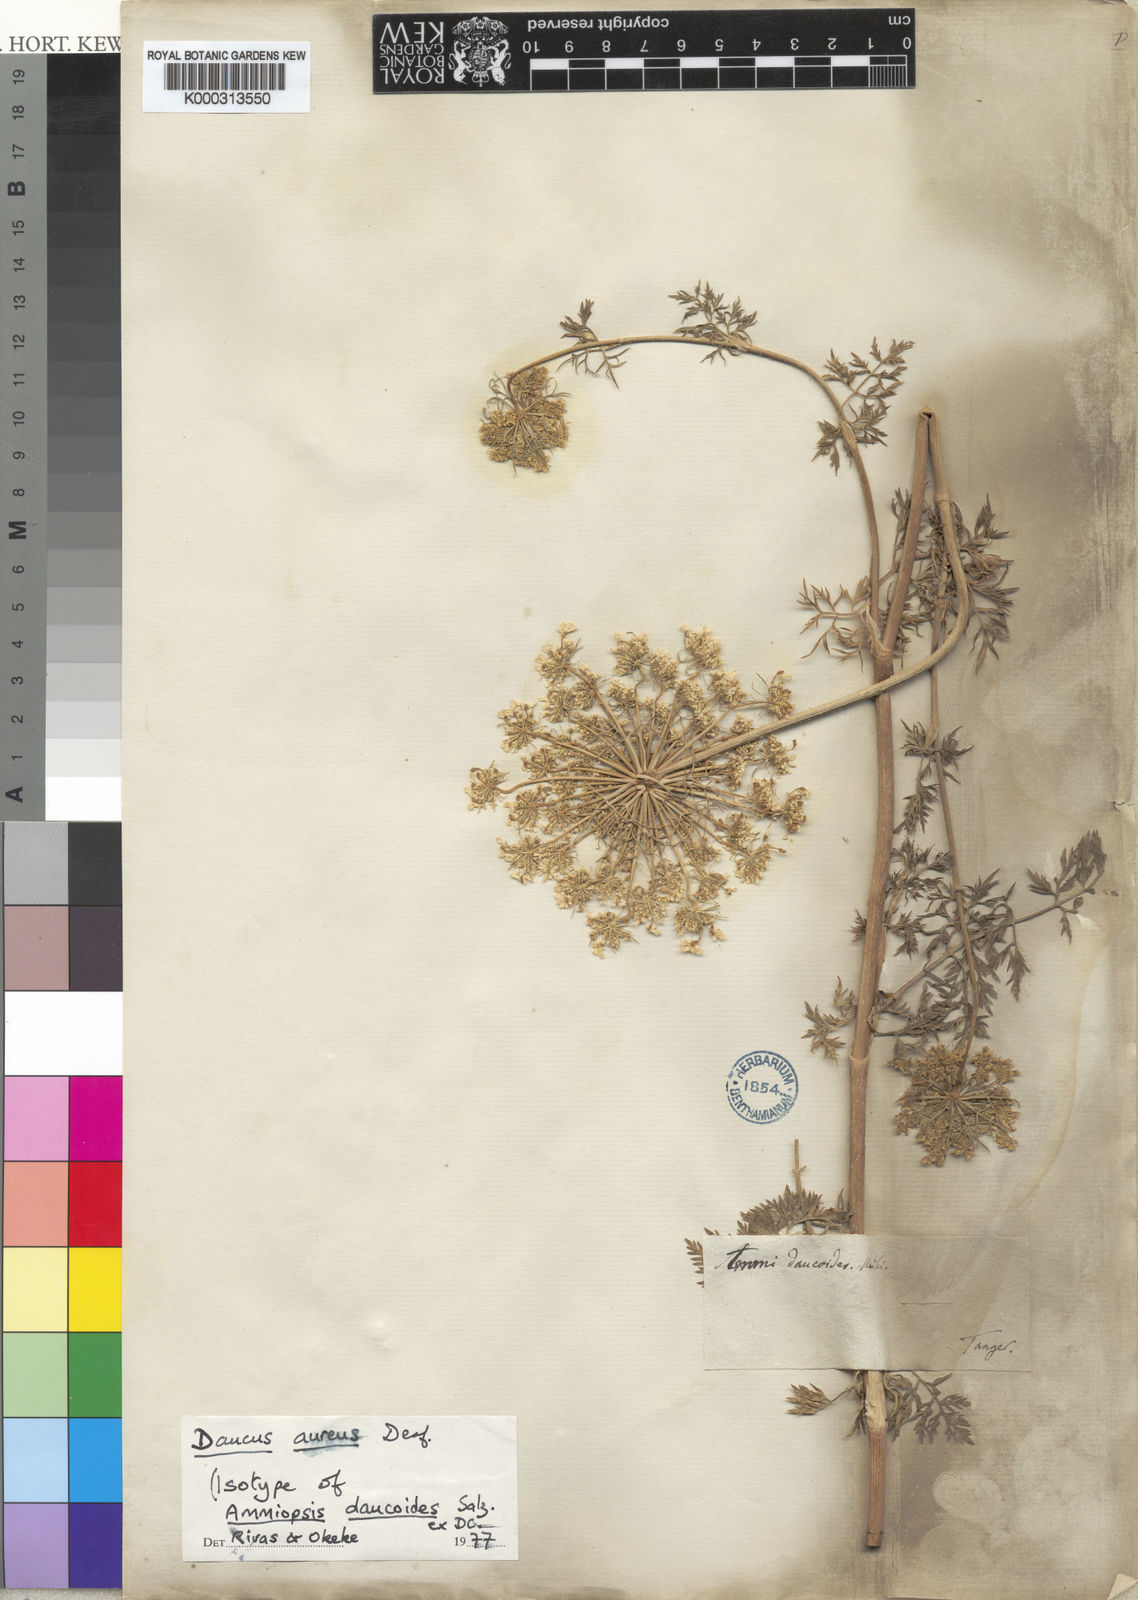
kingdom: Plantae
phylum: Tracheophyta
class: Magnoliopsida
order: Apiales
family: Apiaceae
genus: Daucus
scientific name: Daucus aureus
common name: Golden carrot
